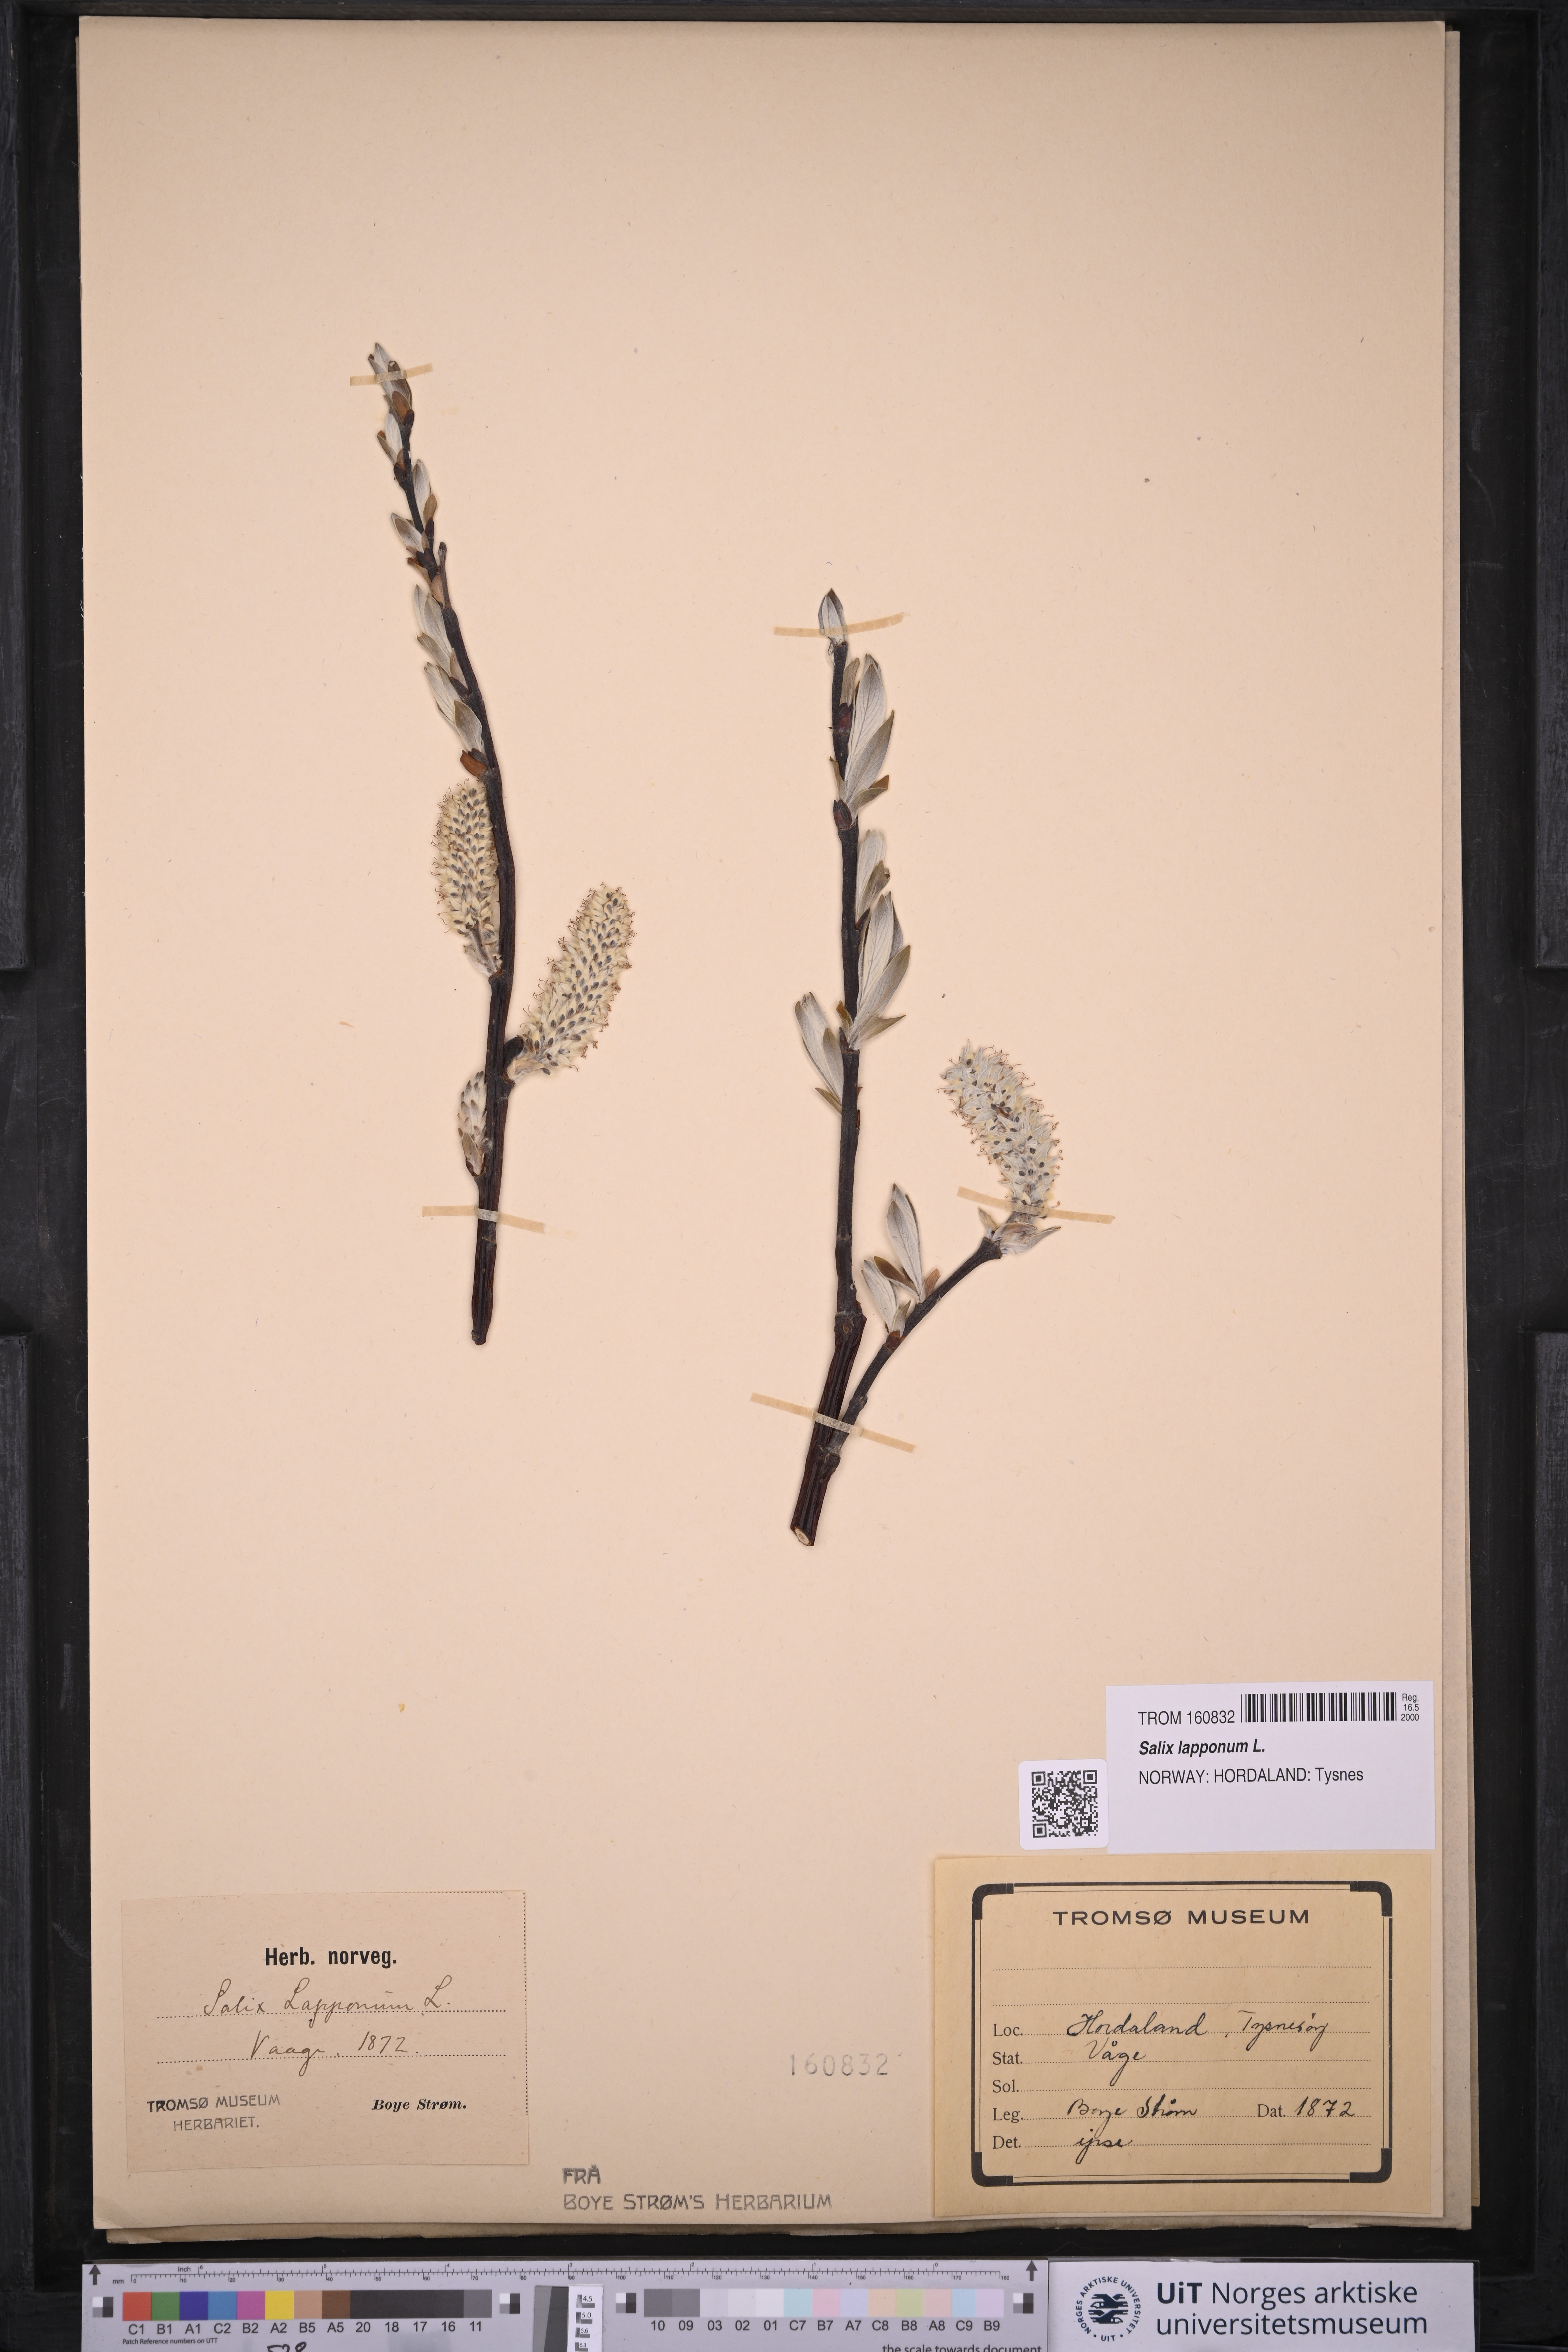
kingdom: Plantae
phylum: Tracheophyta
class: Magnoliopsida
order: Malpighiales
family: Salicaceae
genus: Salix
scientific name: Salix lapponum
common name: Downy willow
